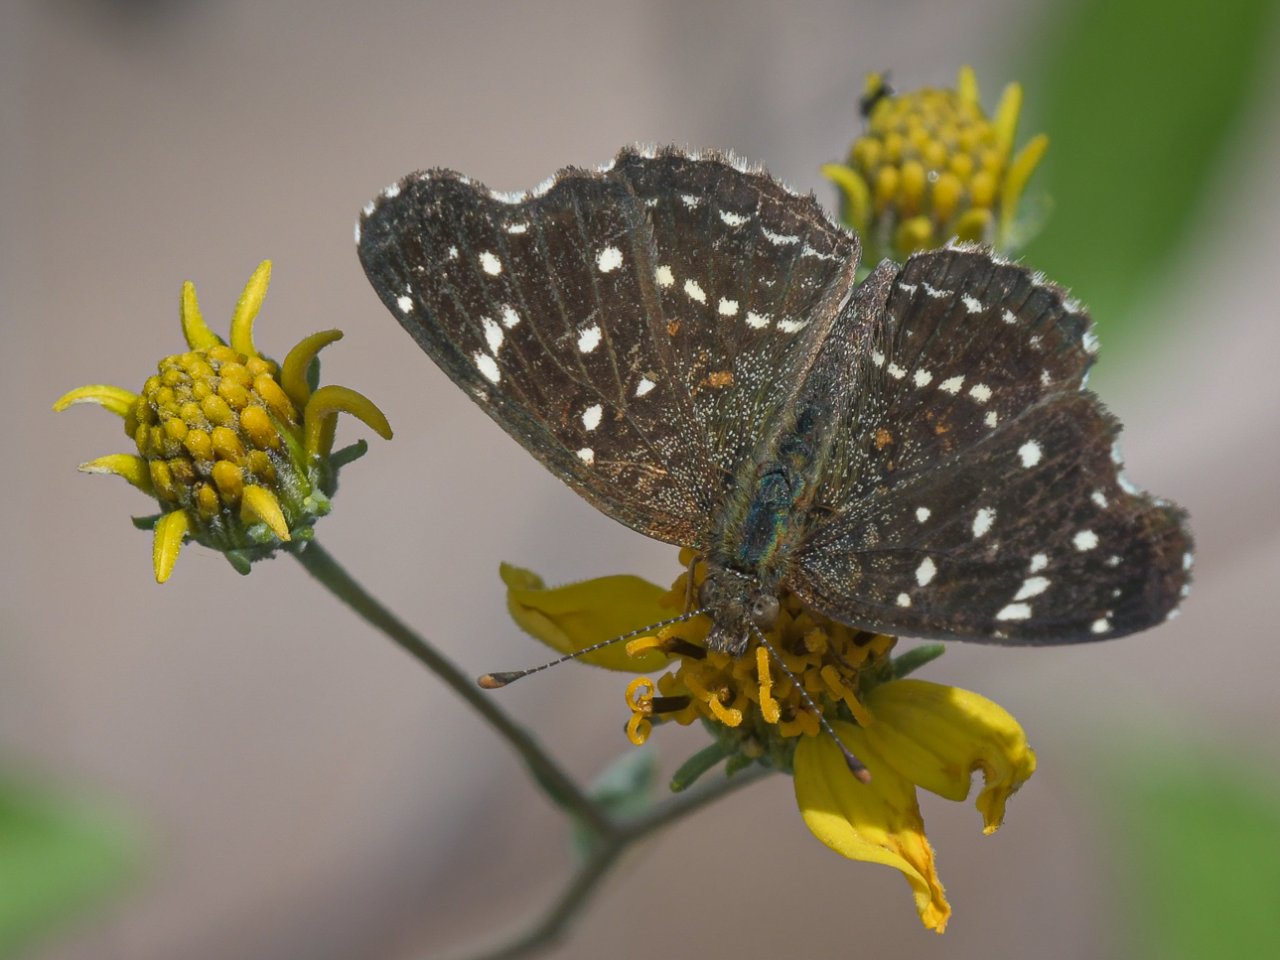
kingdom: Animalia
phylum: Arthropoda
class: Insecta
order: Lepidoptera
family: Nymphalidae
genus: Anthanassa
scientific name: Anthanassa texana
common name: Texan Crescent
